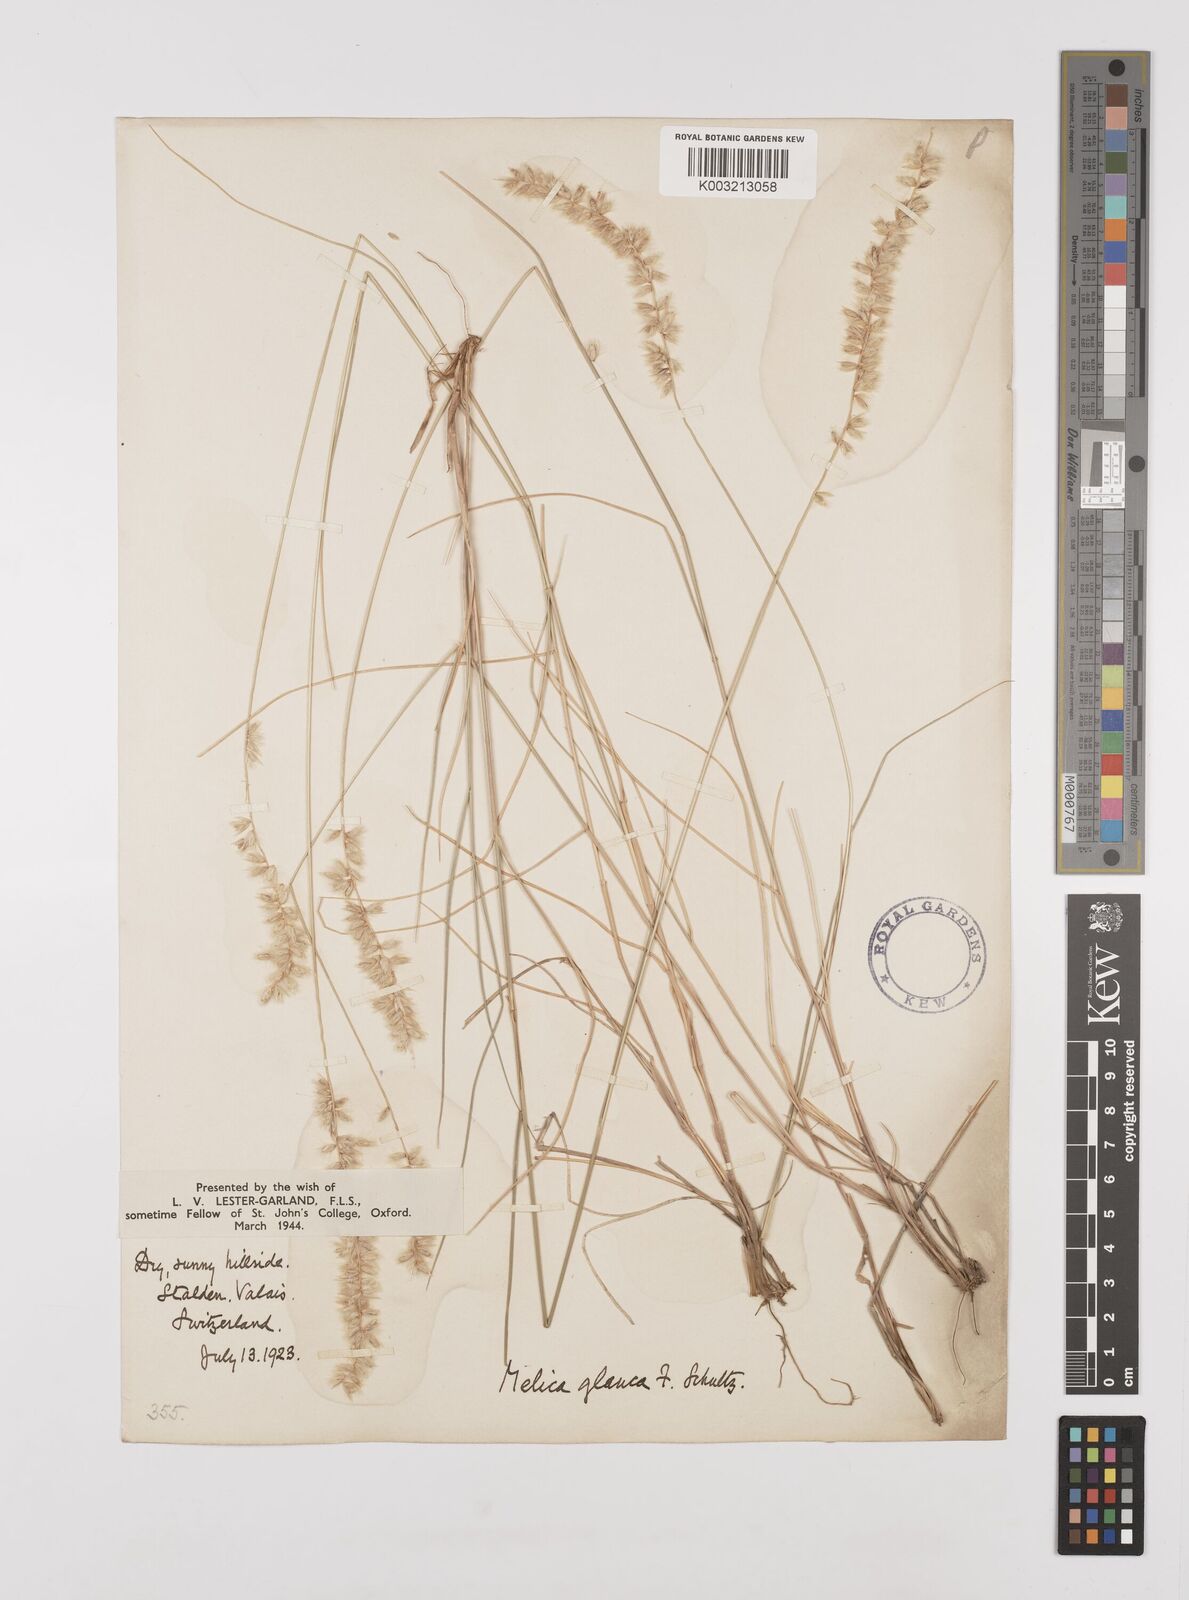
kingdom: Plantae
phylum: Tracheophyta
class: Liliopsida
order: Poales
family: Poaceae
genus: Melica
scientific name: Melica ciliata
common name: Hairy melicgrass
